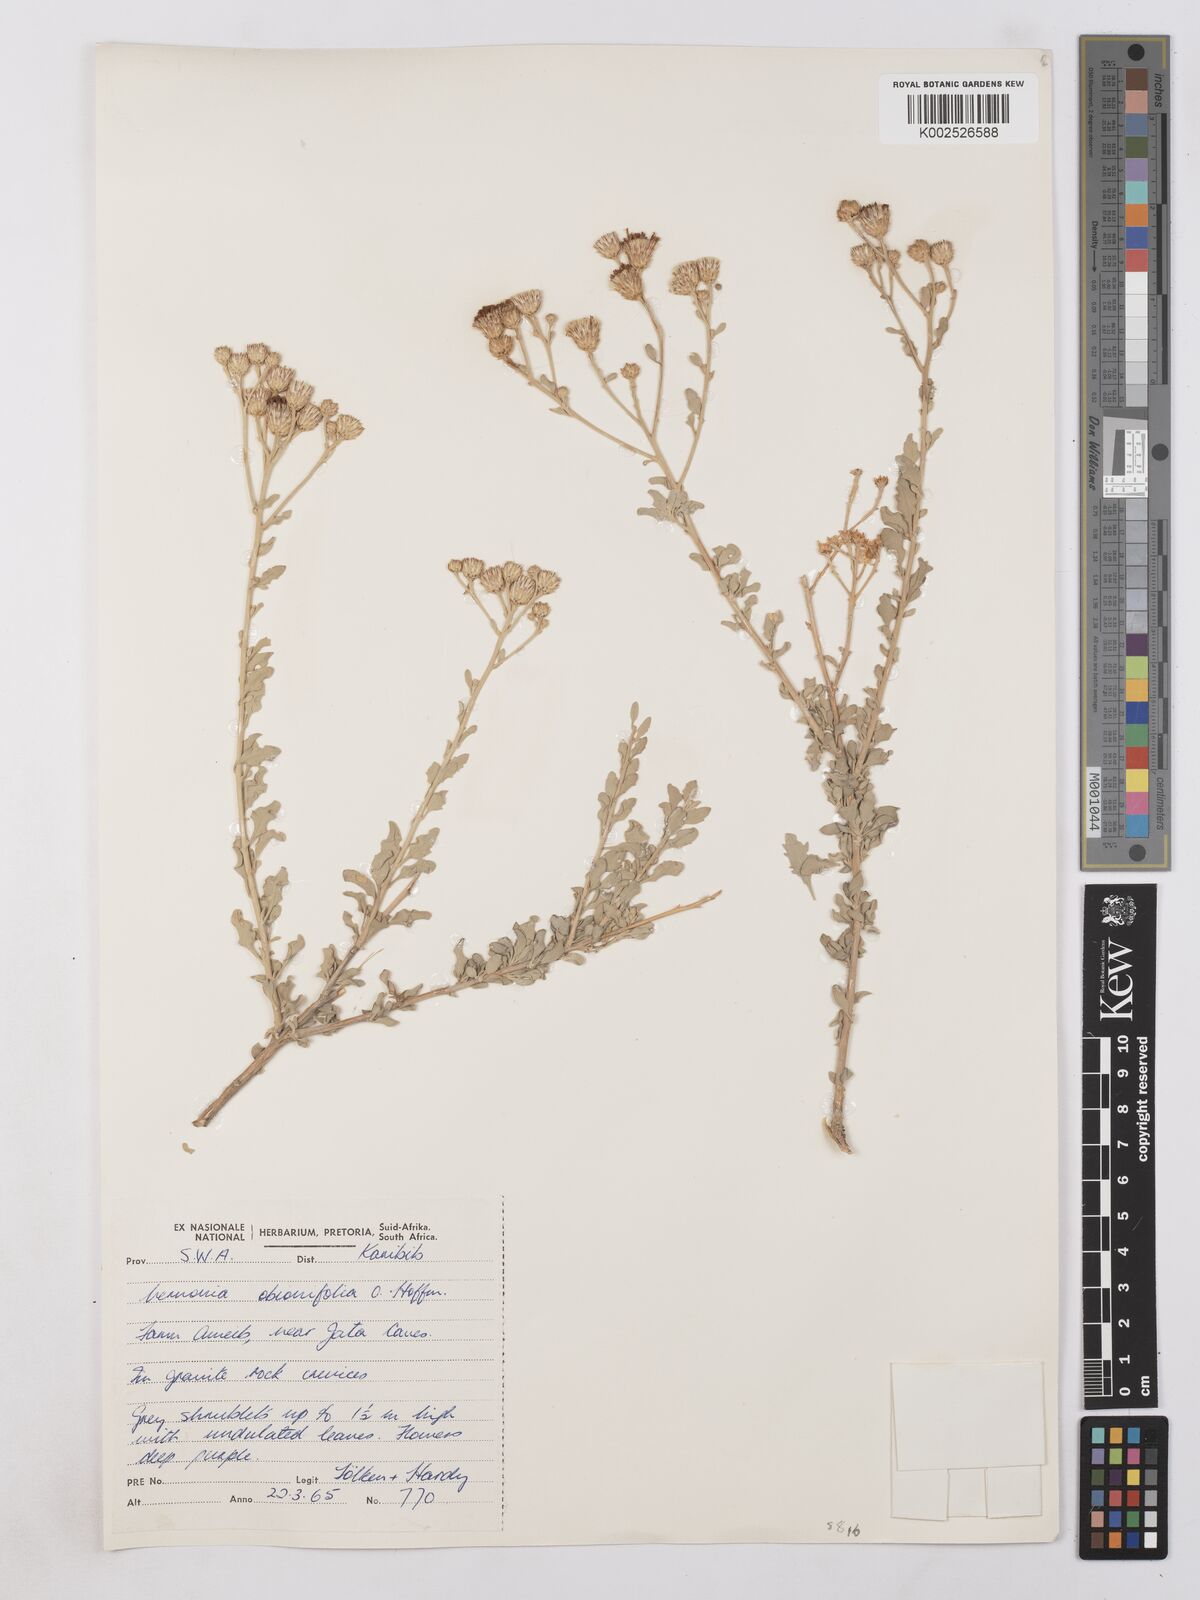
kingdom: Plantae
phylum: Tracheophyta
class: Magnoliopsida
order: Asterales
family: Asteraceae
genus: Namibithamnus
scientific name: Namibithamnus obionifolius
